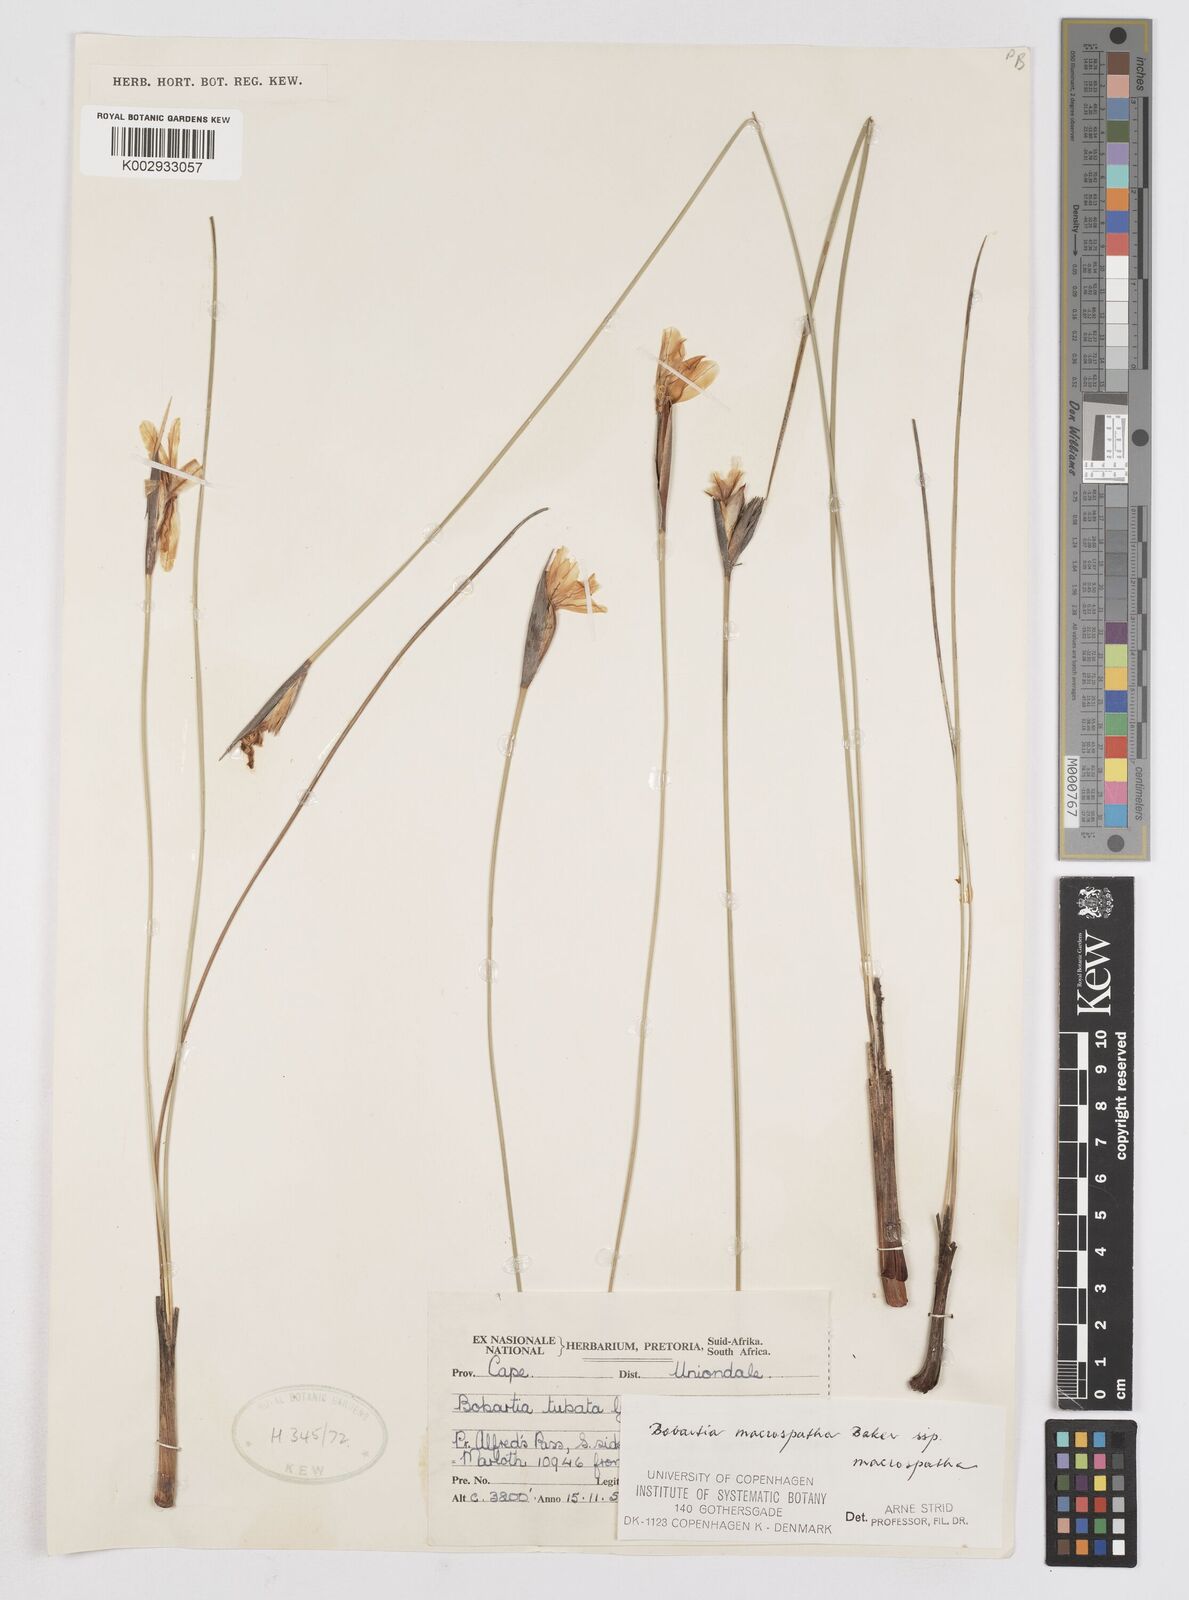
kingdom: Plantae
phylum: Tracheophyta
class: Liliopsida
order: Asparagales
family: Iridaceae
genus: Bobartia
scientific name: Bobartia macrospatha
